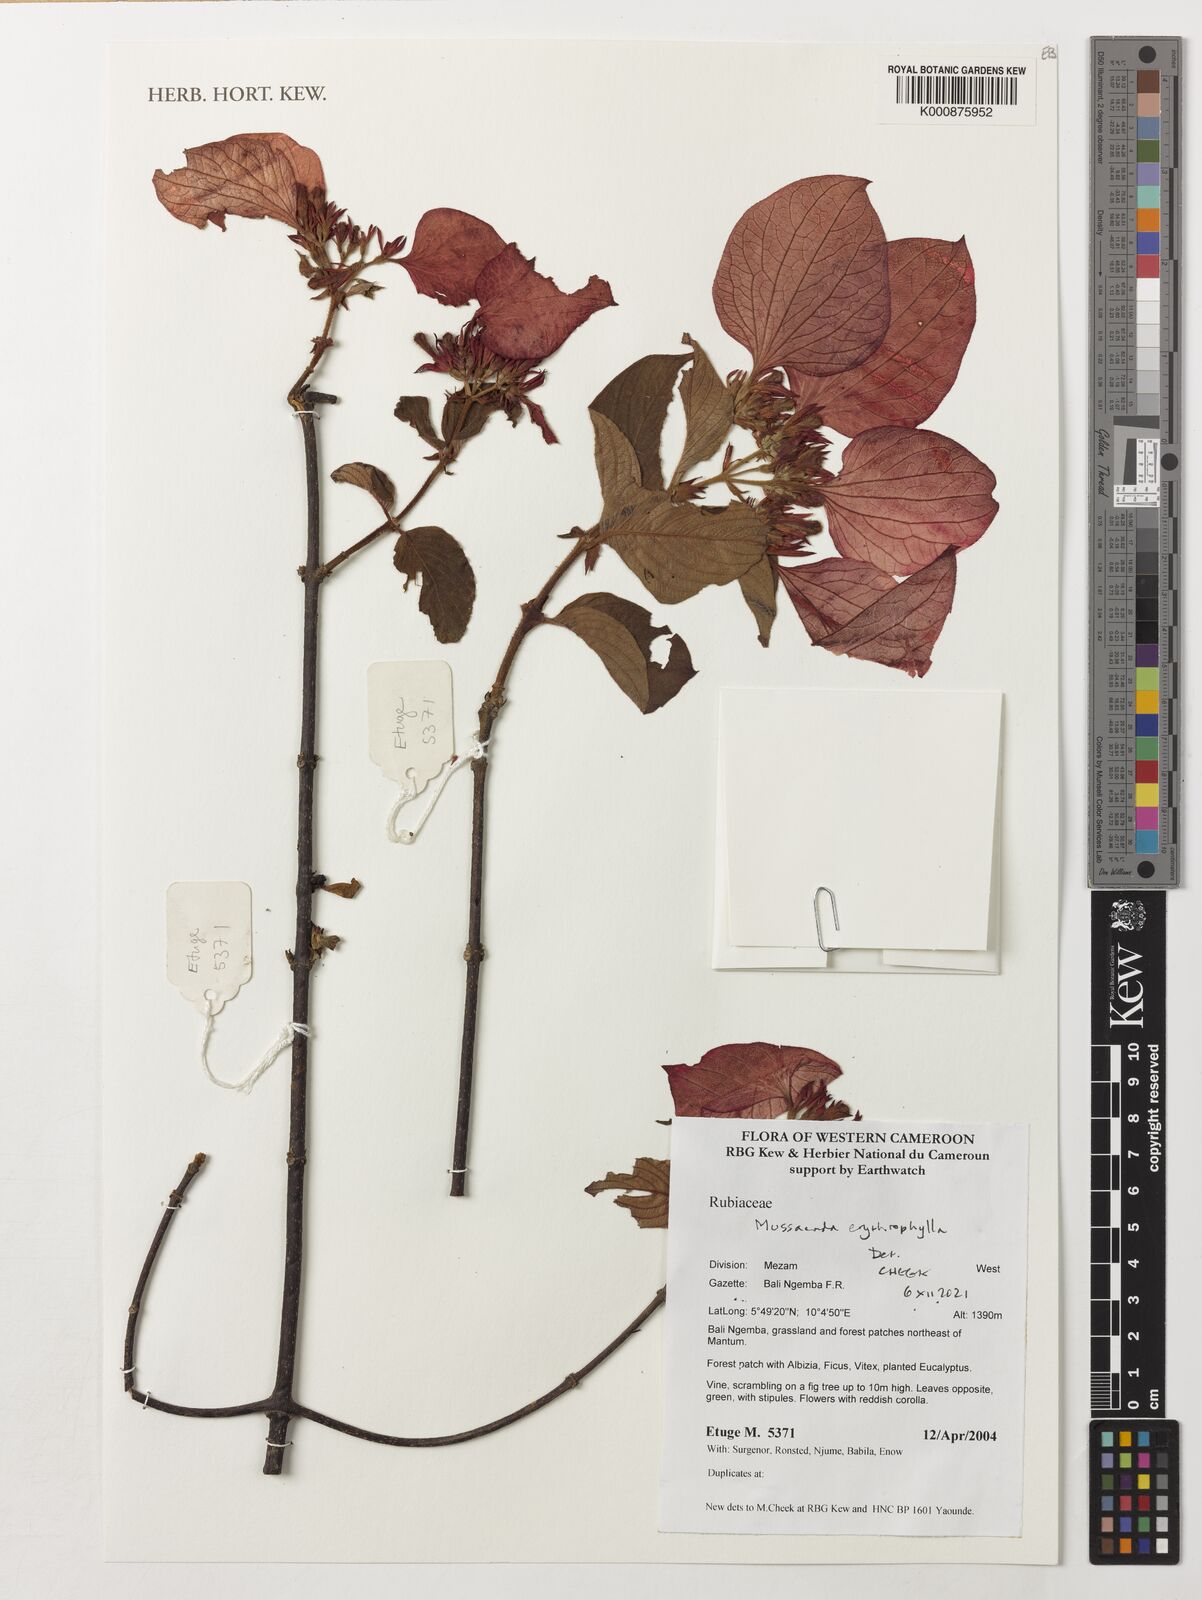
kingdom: Plantae
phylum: Tracheophyta
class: Magnoliopsida
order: Gentianales
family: Rubiaceae
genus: Mussaenda
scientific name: Mussaenda erythrophylla
